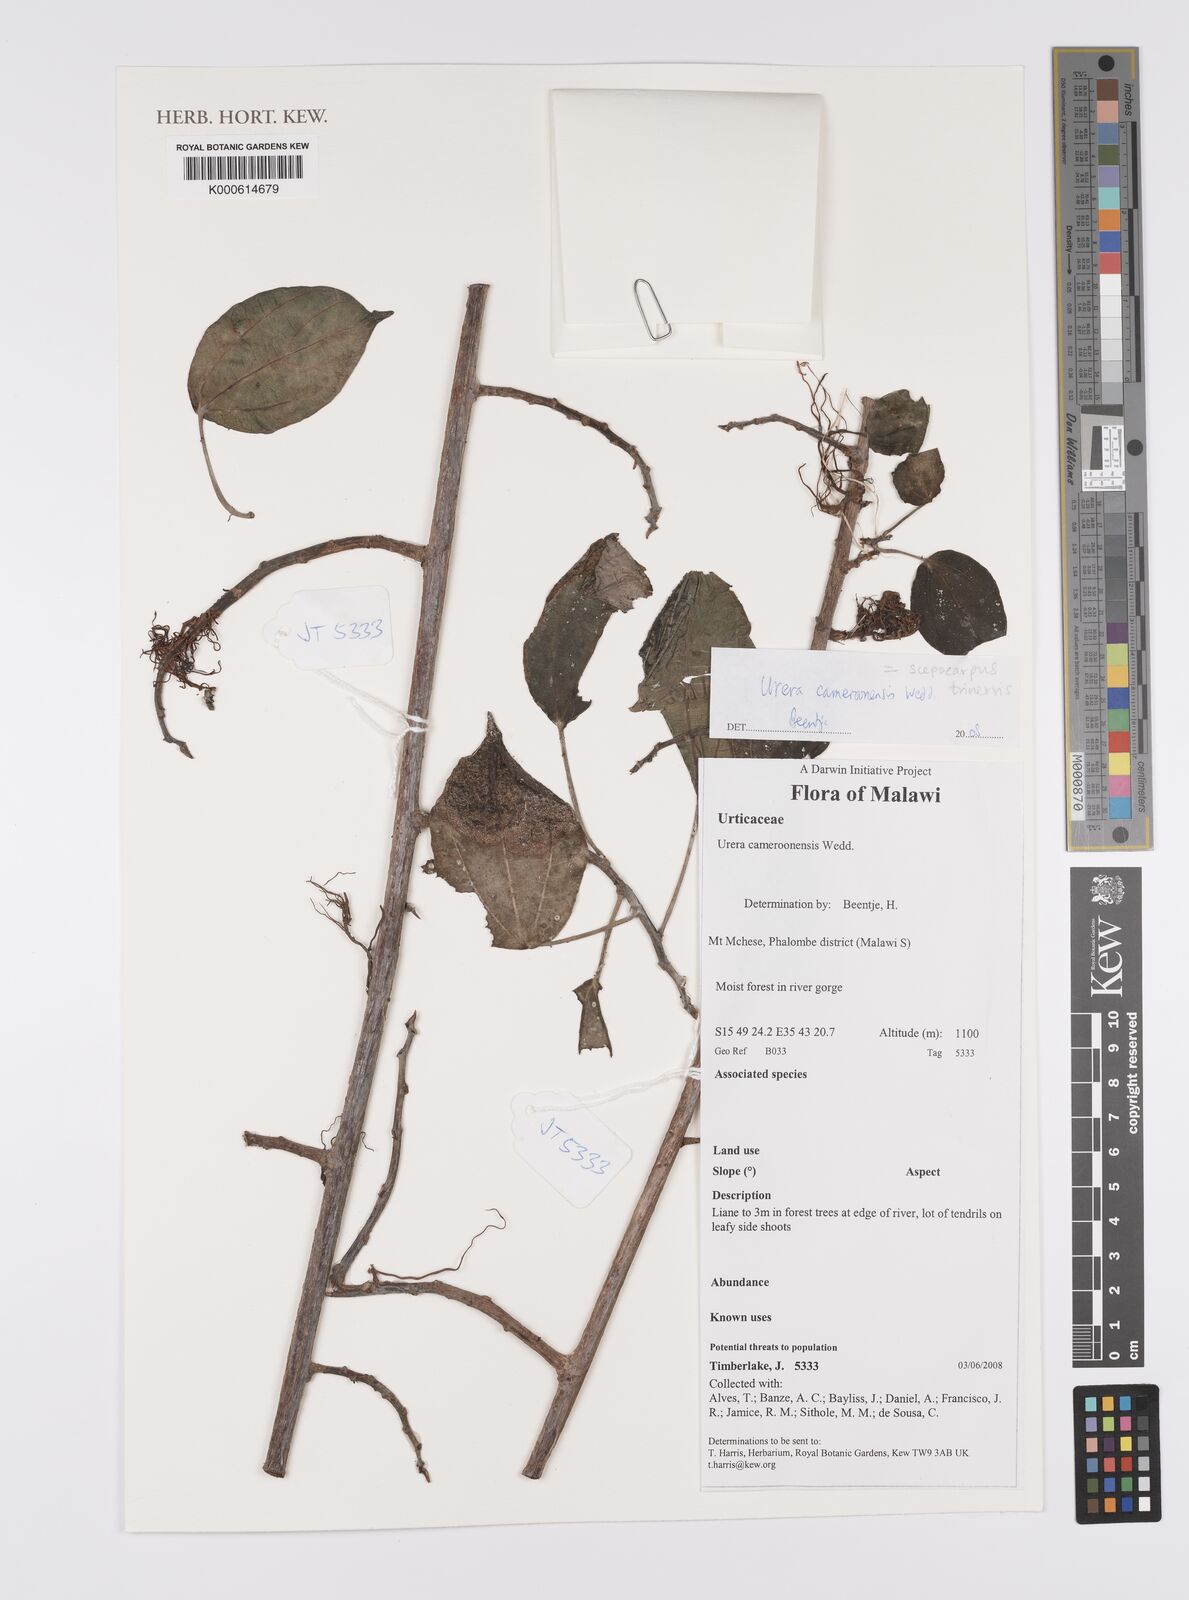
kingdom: Plantae
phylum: Tracheophyta
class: Magnoliopsida
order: Rosales
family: Urticaceae
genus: Scepocarpus
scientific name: Scepocarpus trinervis
